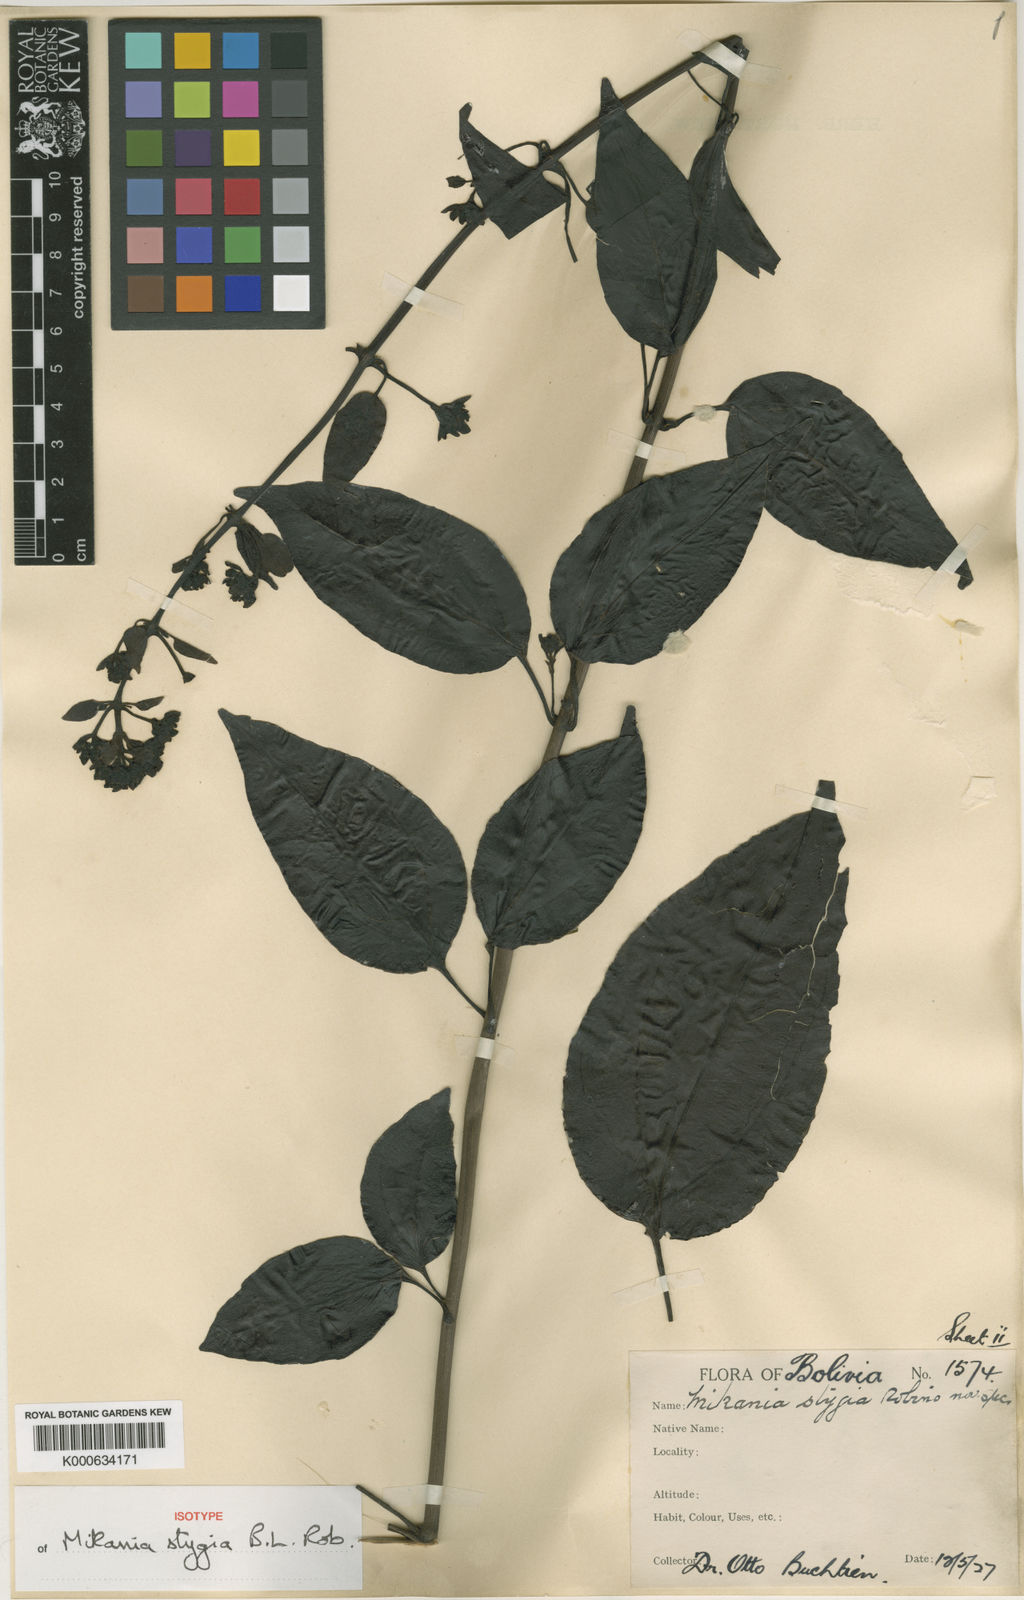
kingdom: Plantae
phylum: Tracheophyta
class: Magnoliopsida
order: Asterales
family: Asteraceae
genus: Mikania
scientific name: Mikania stygia
